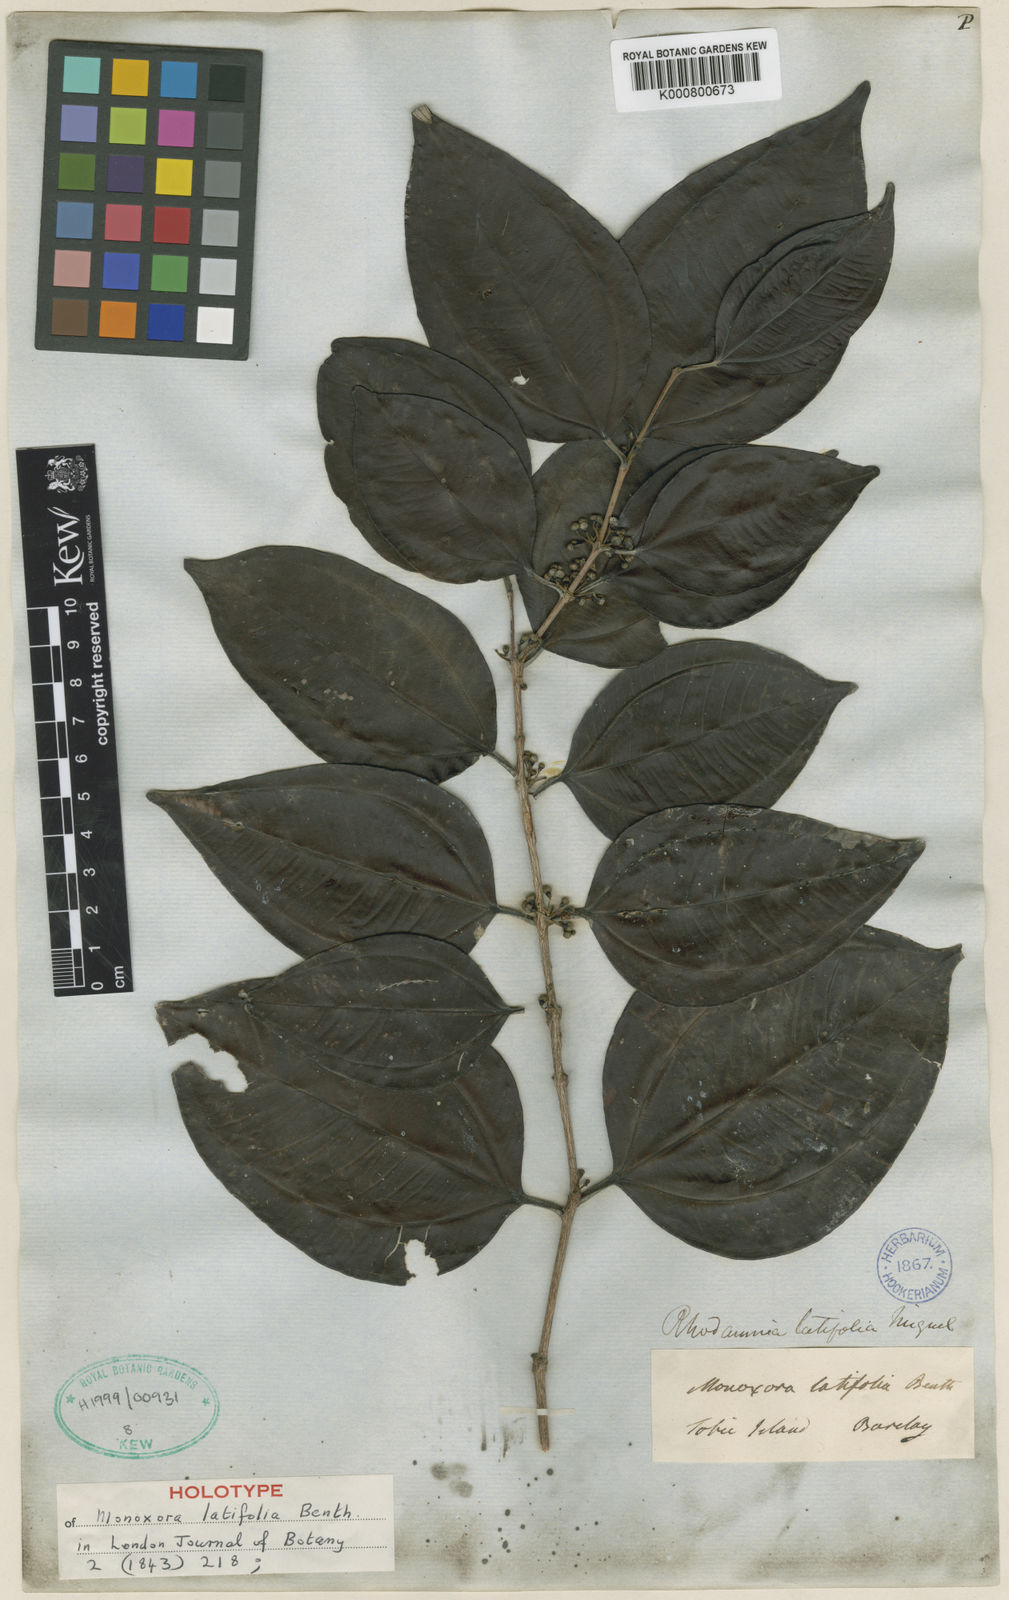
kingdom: Plantae
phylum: Tracheophyta
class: Magnoliopsida
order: Myrtales
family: Myrtaceae
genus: Rhodamnia
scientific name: Rhodamnia latifolia
